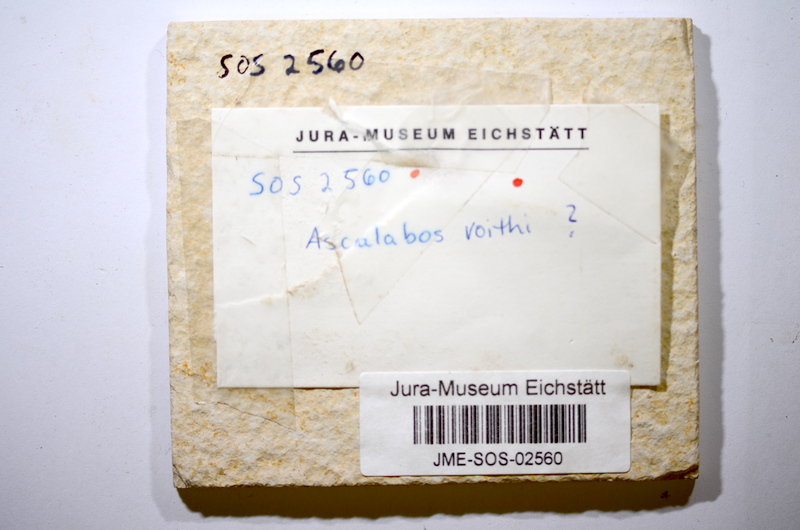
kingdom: Animalia
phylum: Chordata
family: Ascalaboidae
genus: Ascalabos
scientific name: Ascalabos voithii
